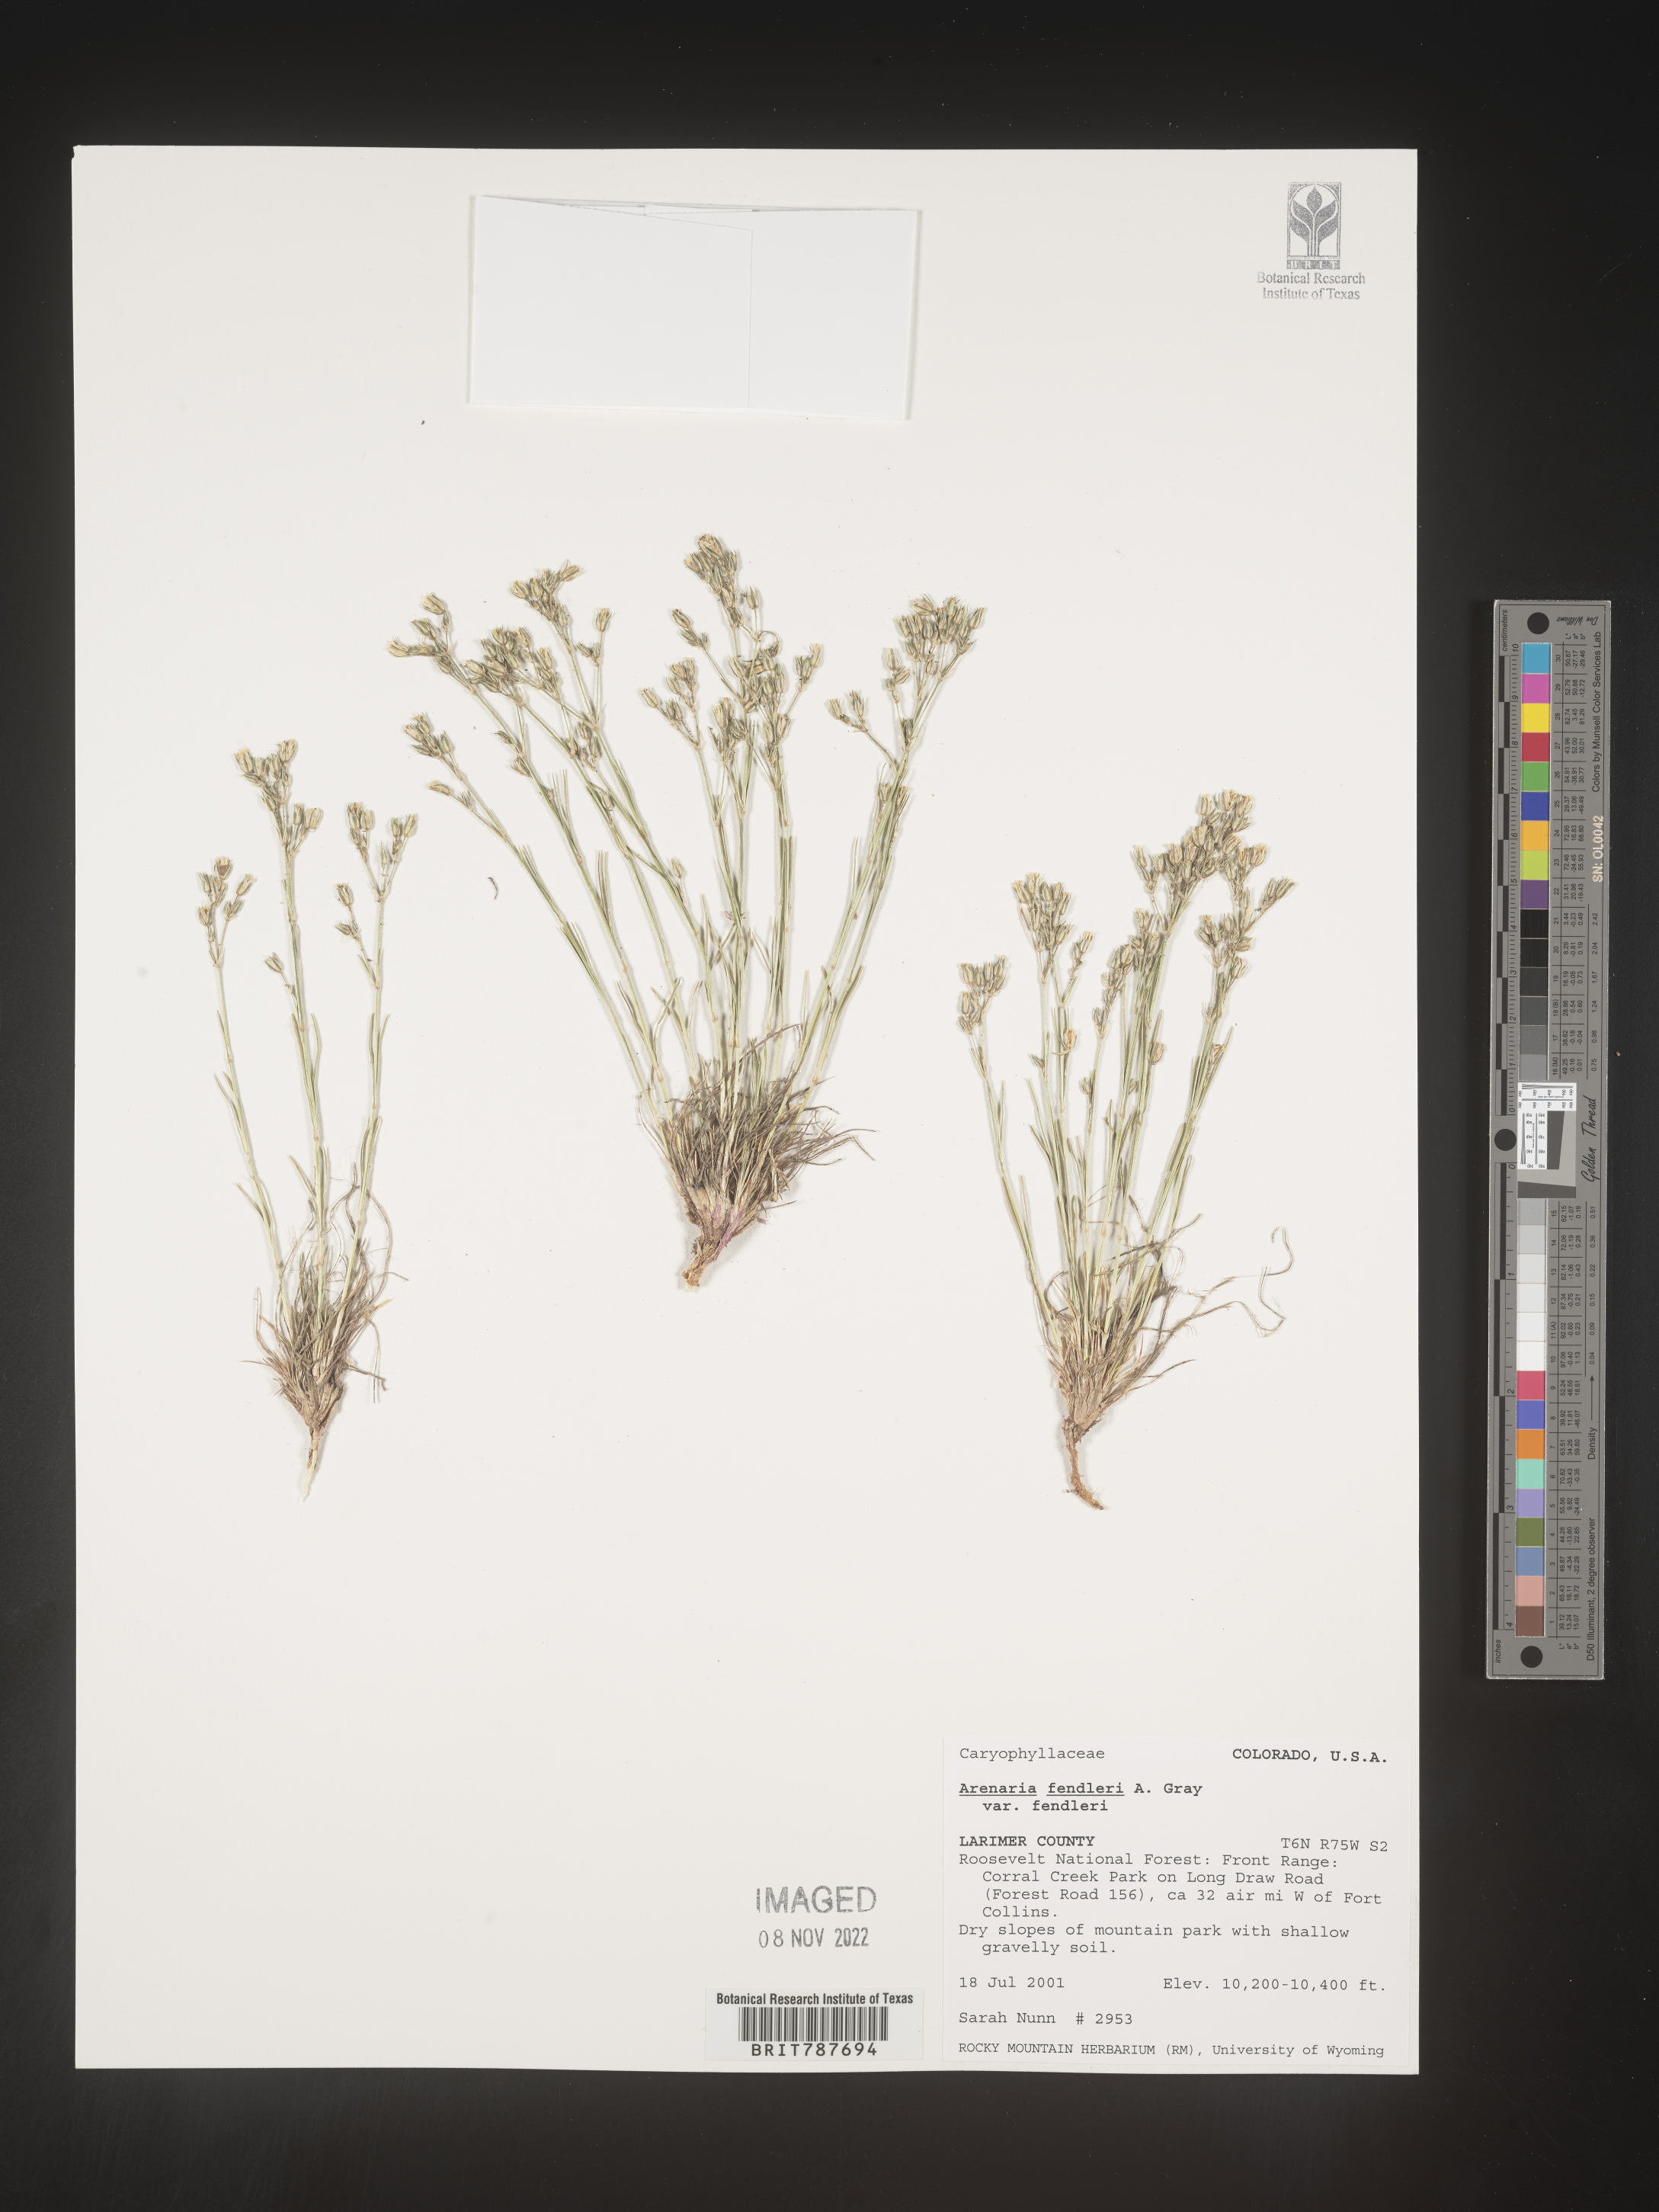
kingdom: Plantae
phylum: Tracheophyta
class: Magnoliopsida
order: Caryophyllales
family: Caryophyllaceae
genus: Arenaria
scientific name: Arenaria
